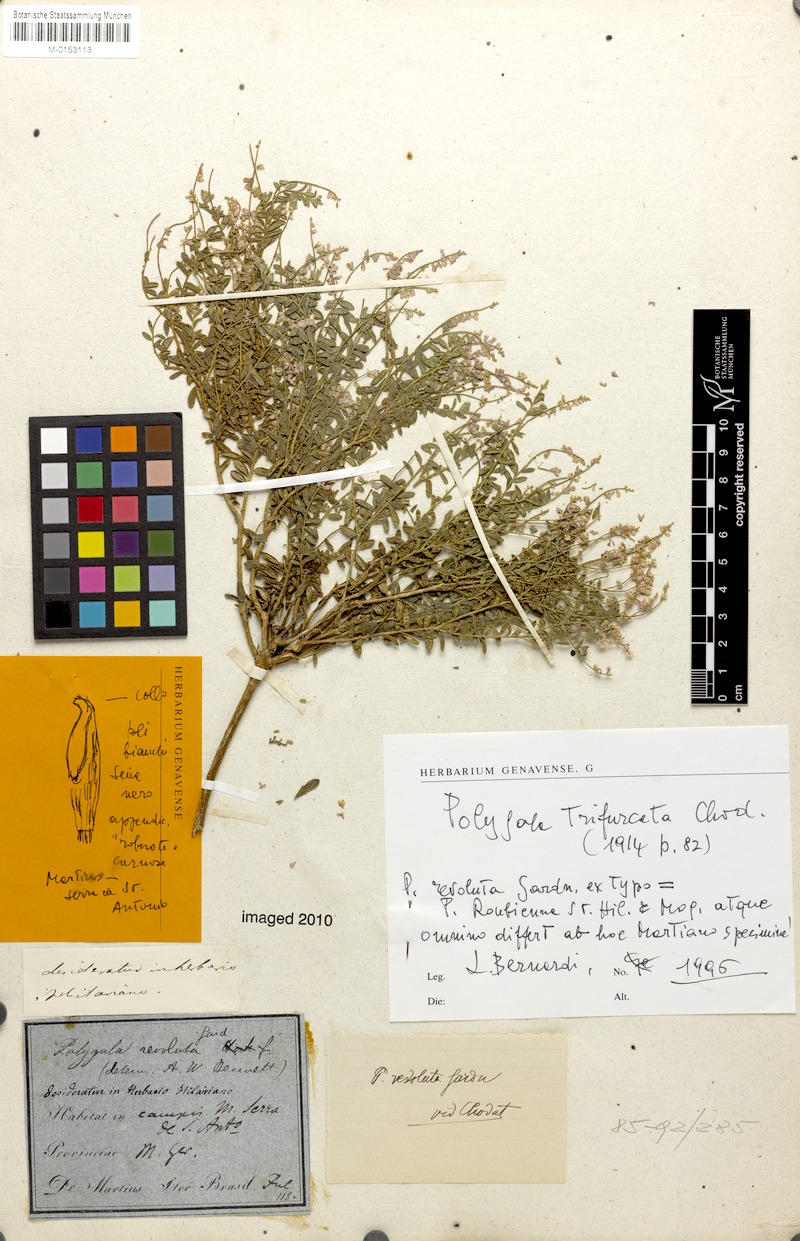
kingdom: Plantae
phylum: Tracheophyta
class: Magnoliopsida
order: Fabales
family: Polygalaceae
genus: Polygala
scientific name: Polygala trifurcata
